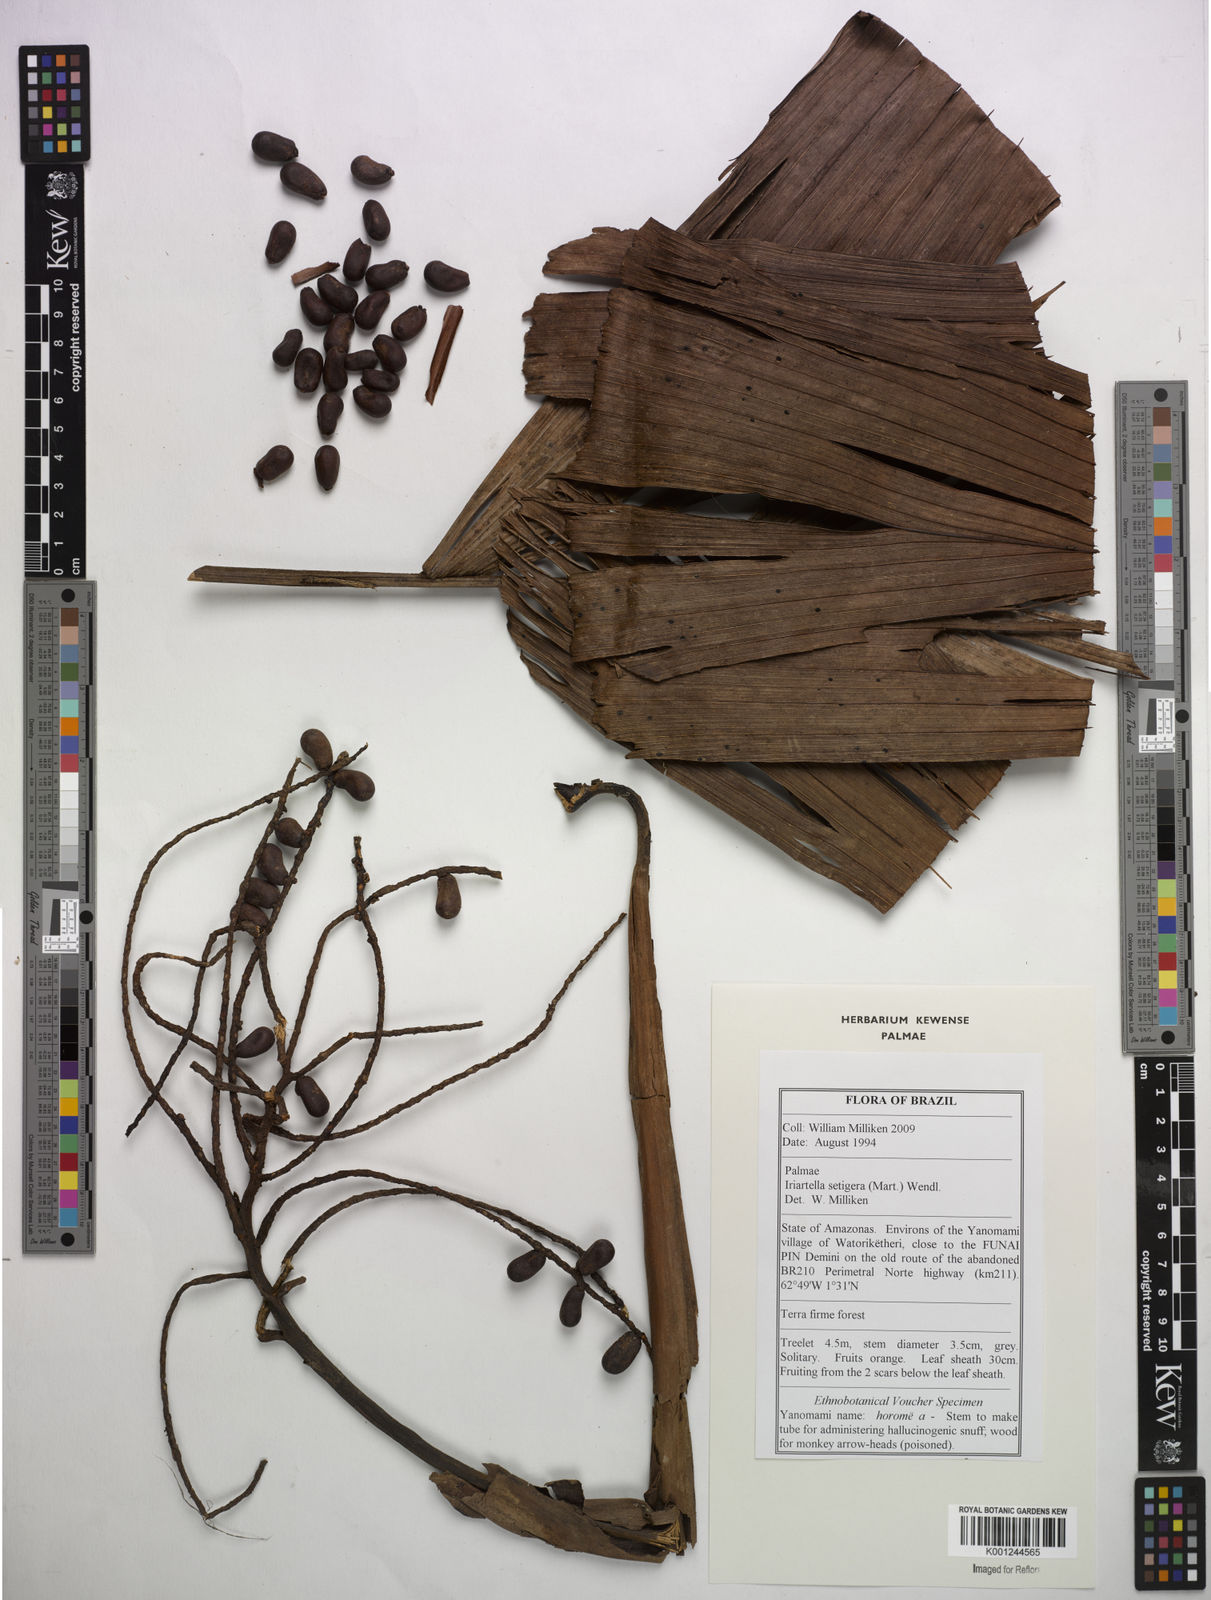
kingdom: Plantae
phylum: Tracheophyta
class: Liliopsida
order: Arecales
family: Arecaceae
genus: Iriartella
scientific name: Iriartella setigera
